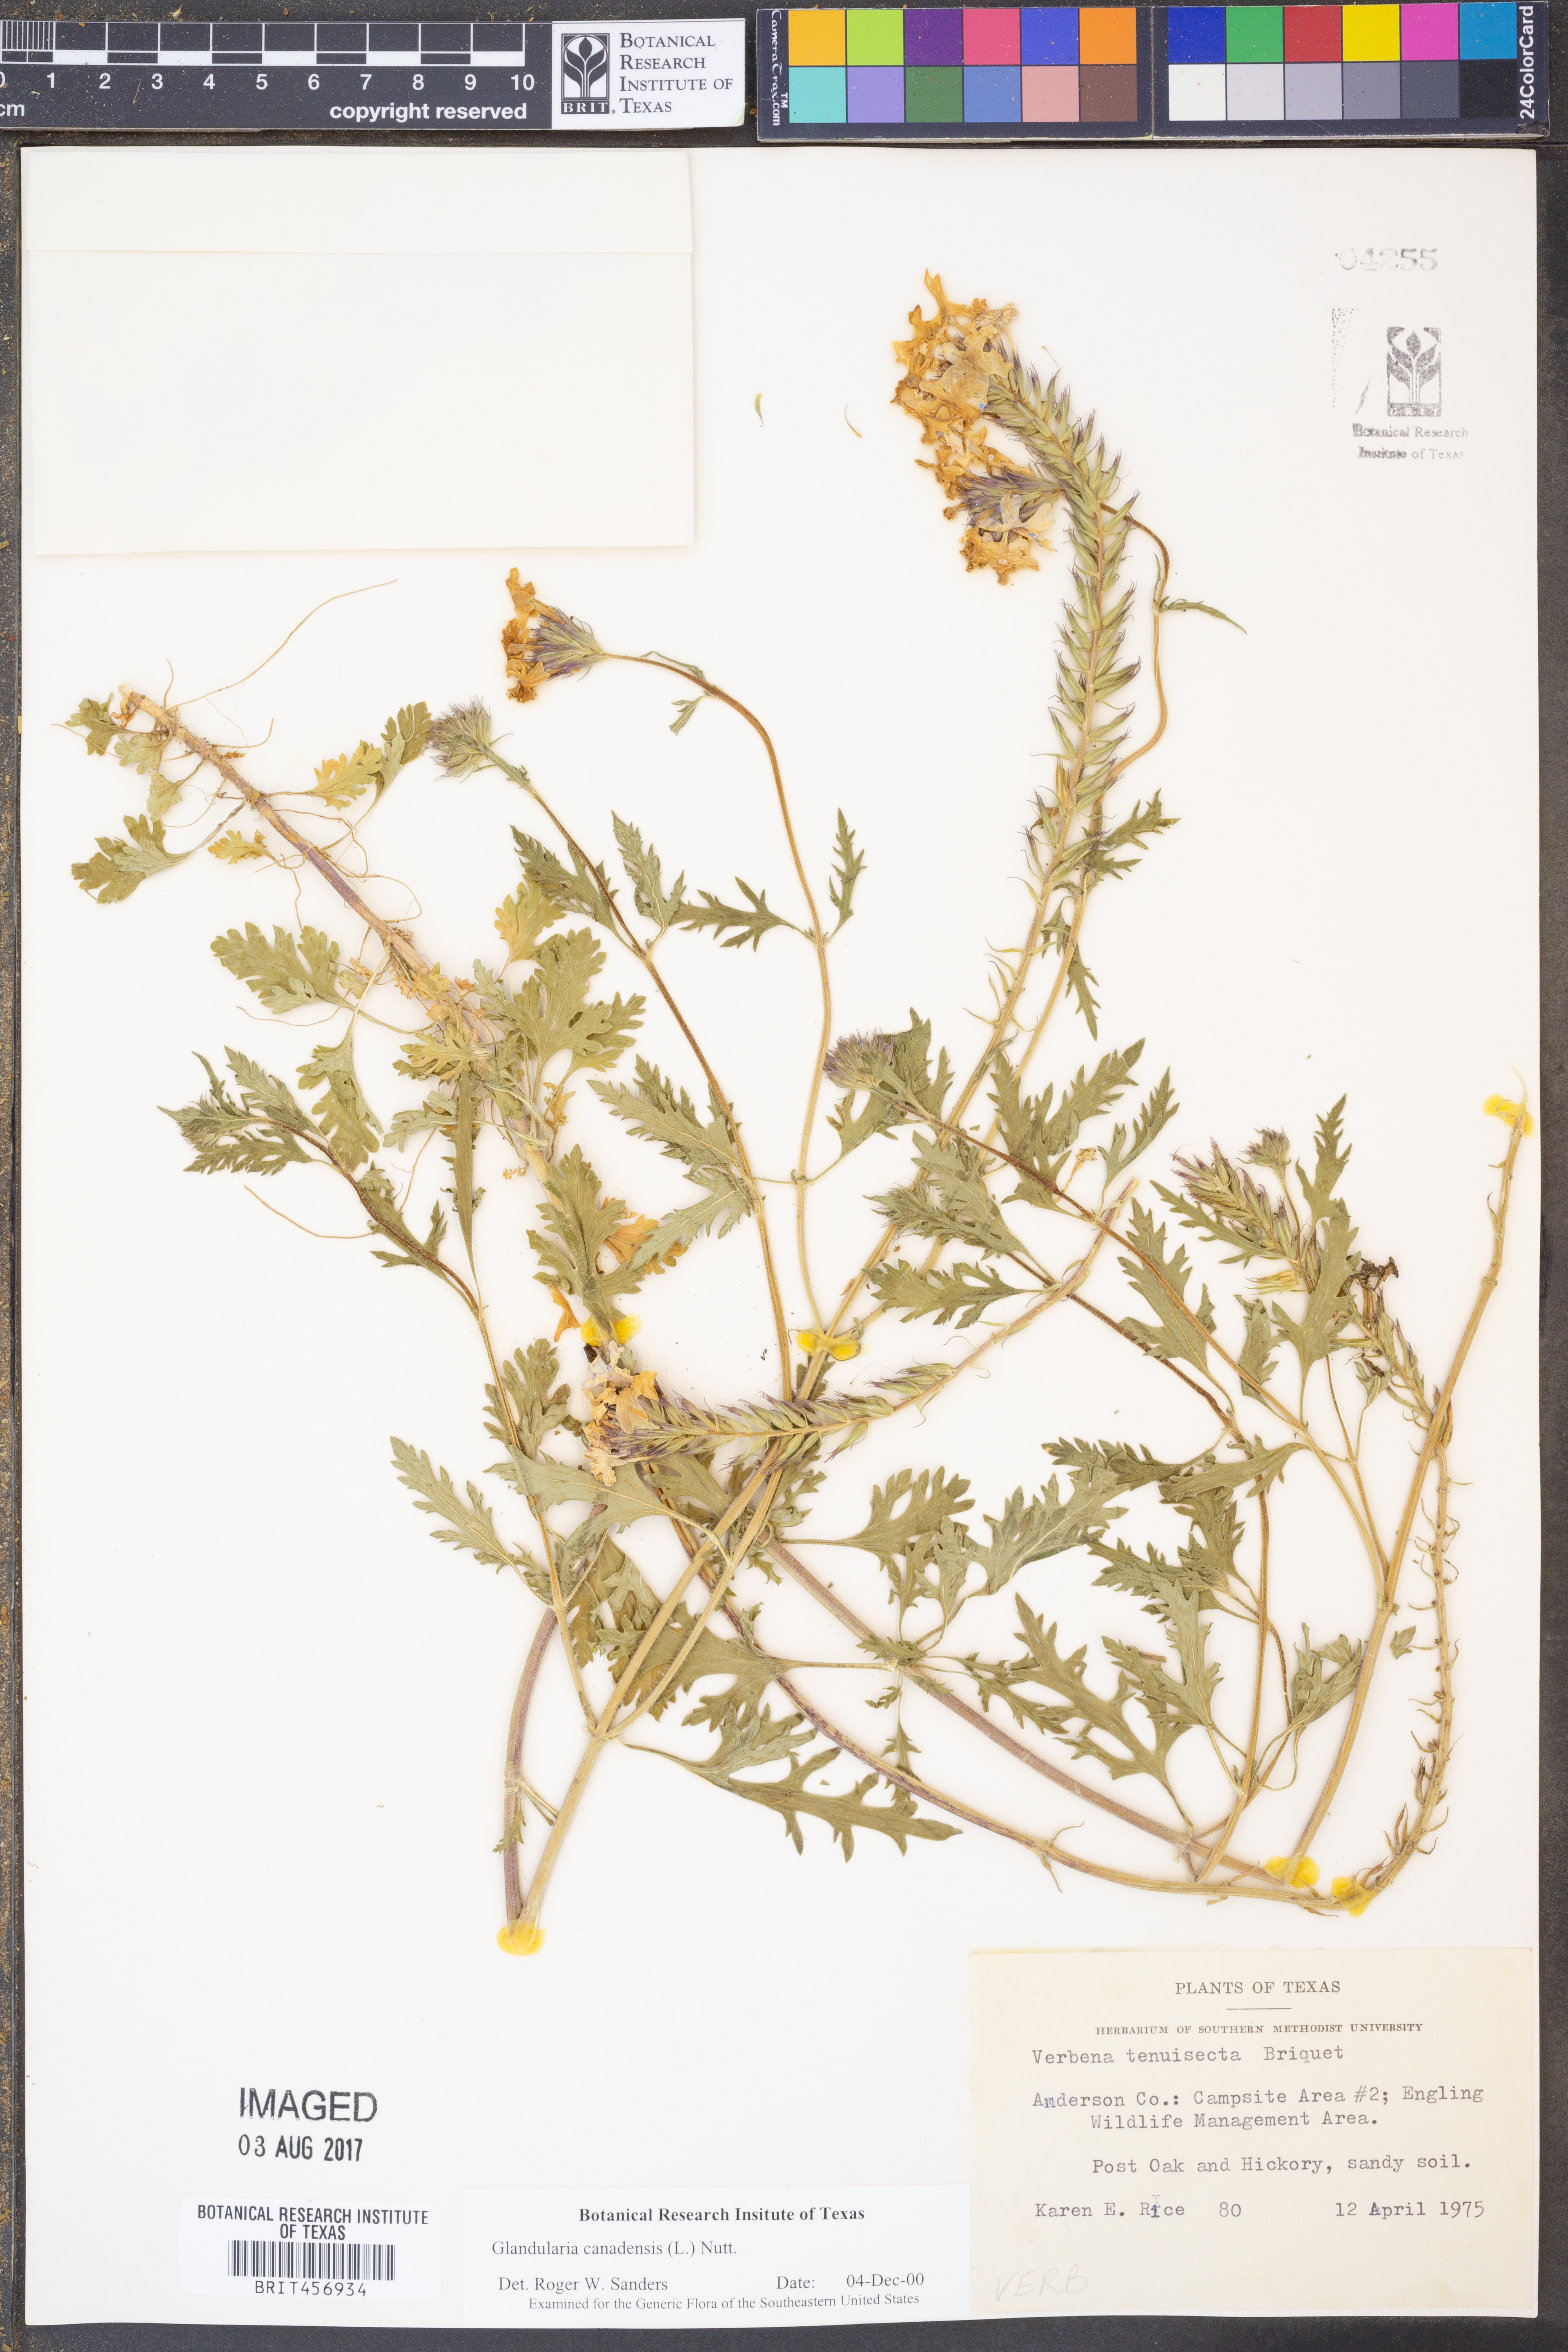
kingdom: Plantae
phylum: Tracheophyta
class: Magnoliopsida
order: Lamiales
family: Verbenaceae
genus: Verbena
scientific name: Verbena canadensis
